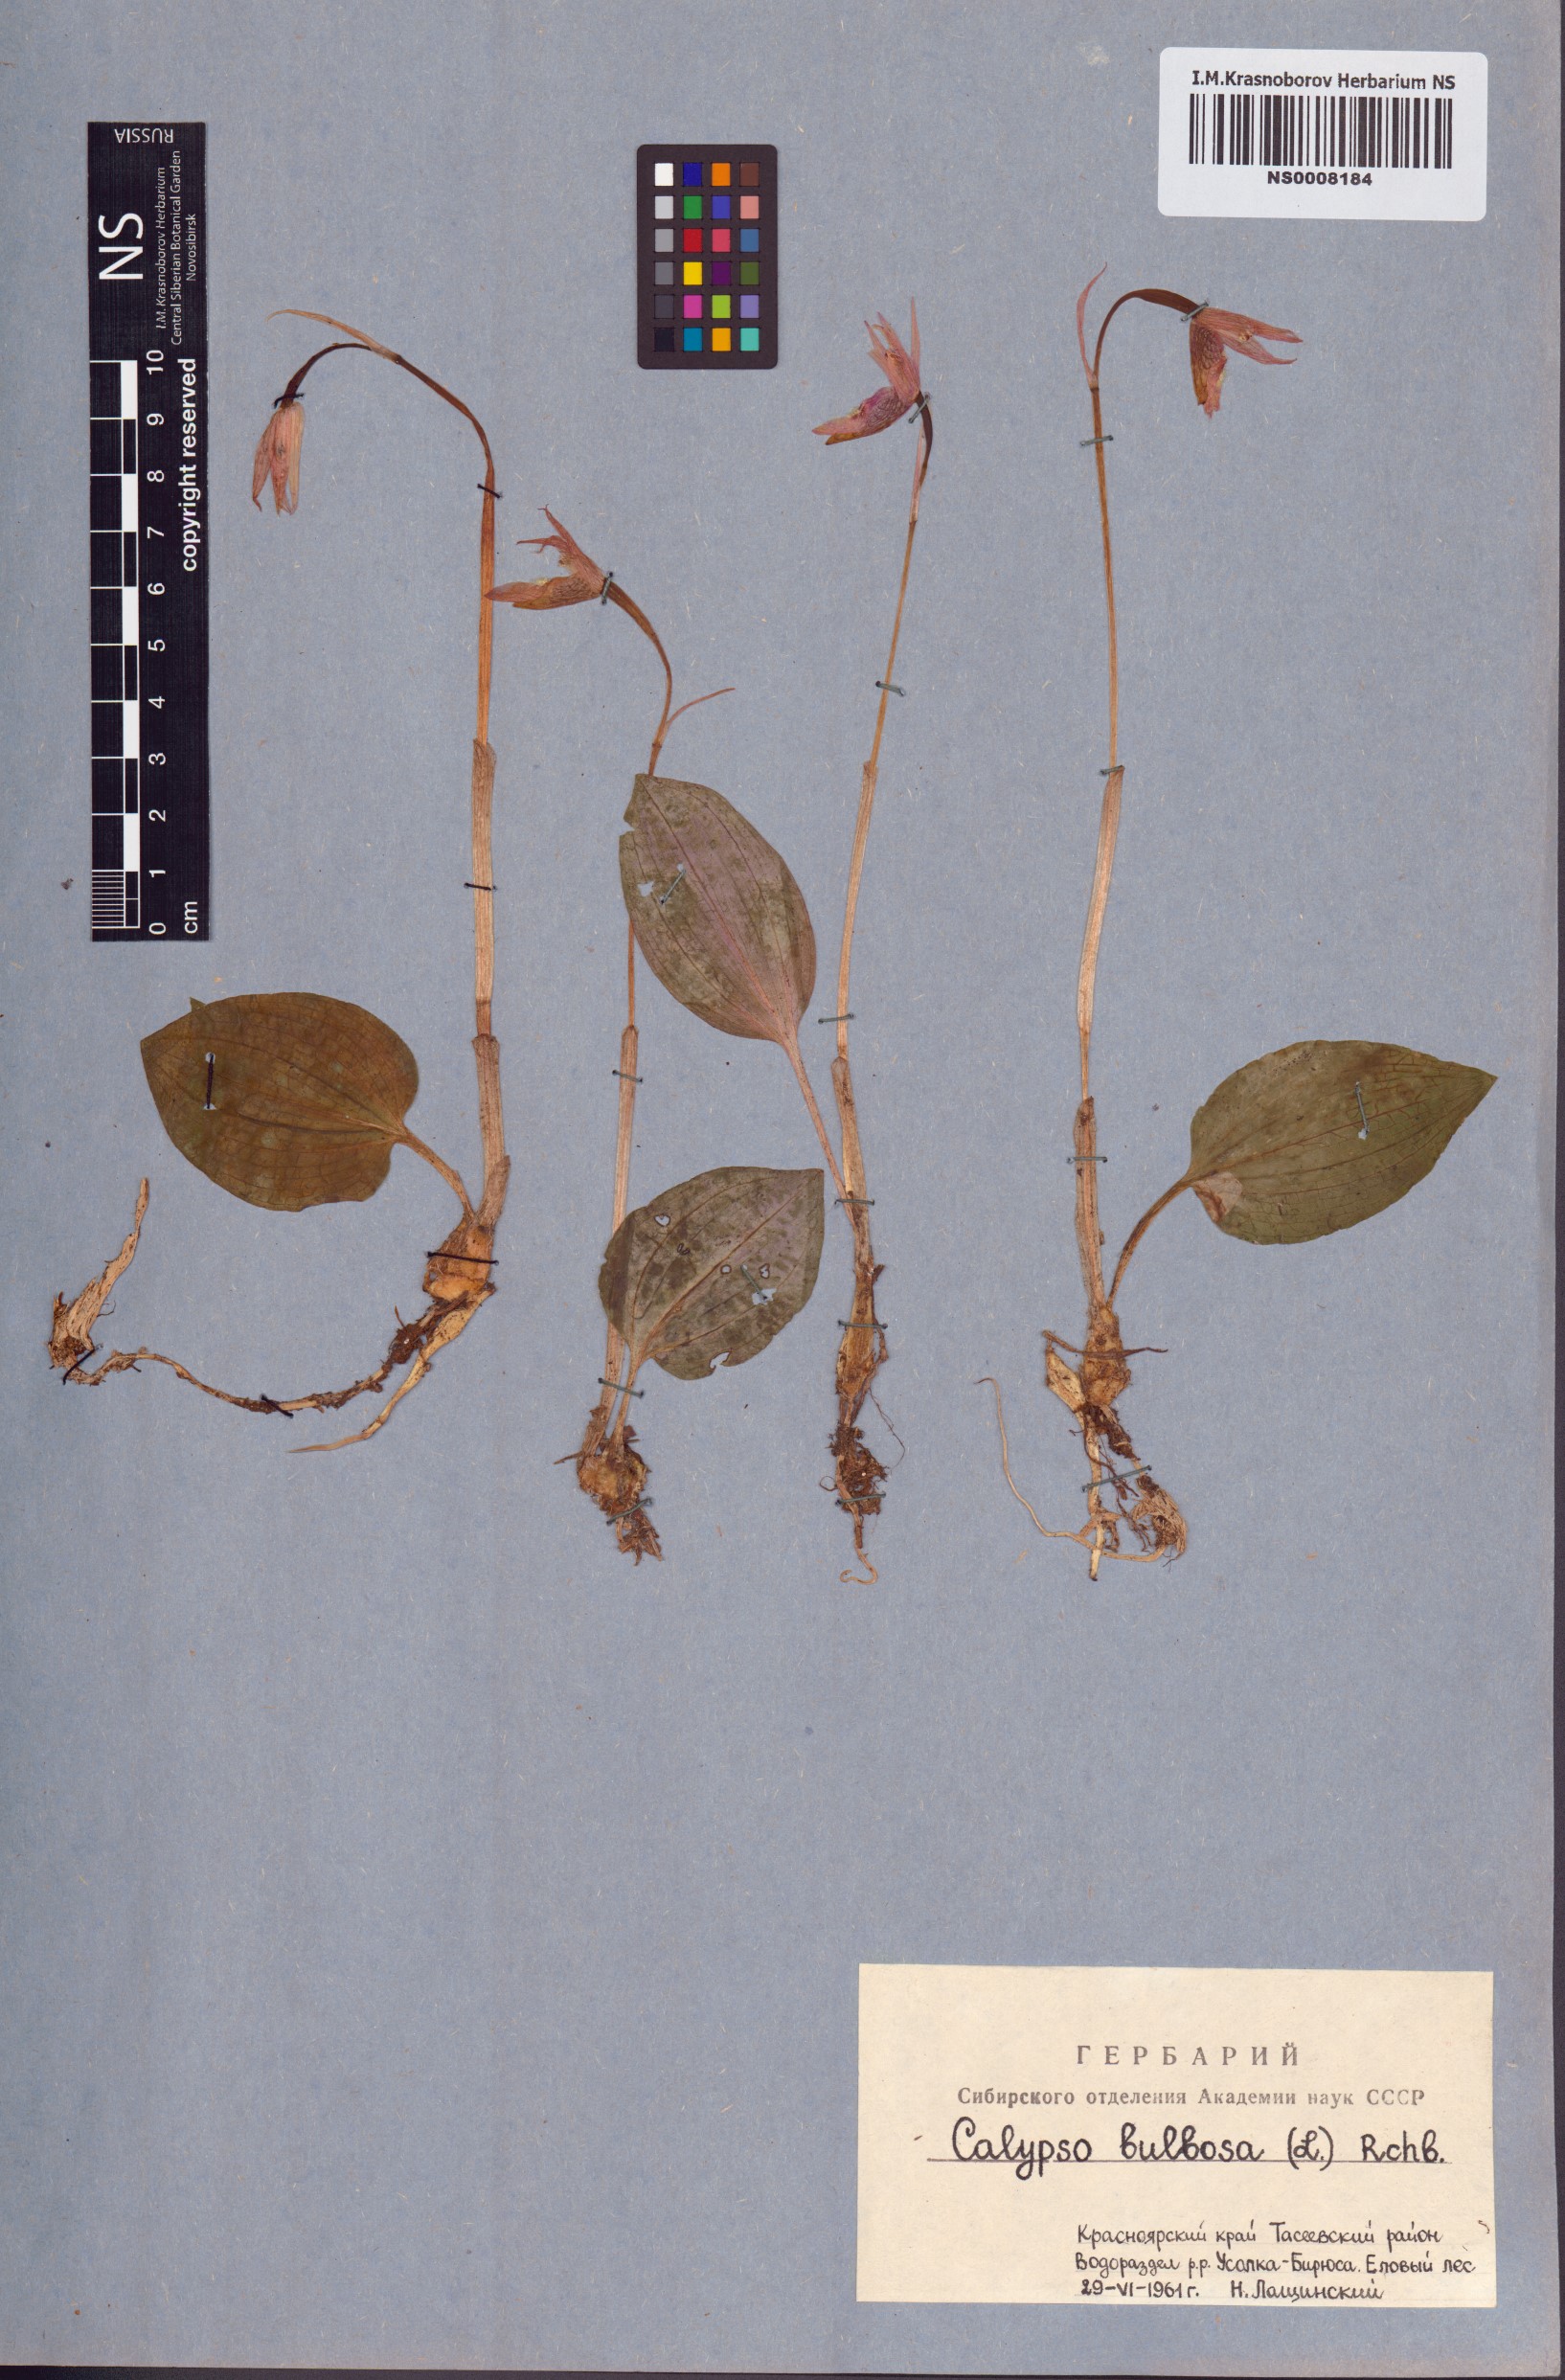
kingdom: Plantae
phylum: Tracheophyta
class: Liliopsida
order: Asparagales
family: Orchidaceae
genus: Calypso
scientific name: Calypso bulbosa
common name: Calypso
